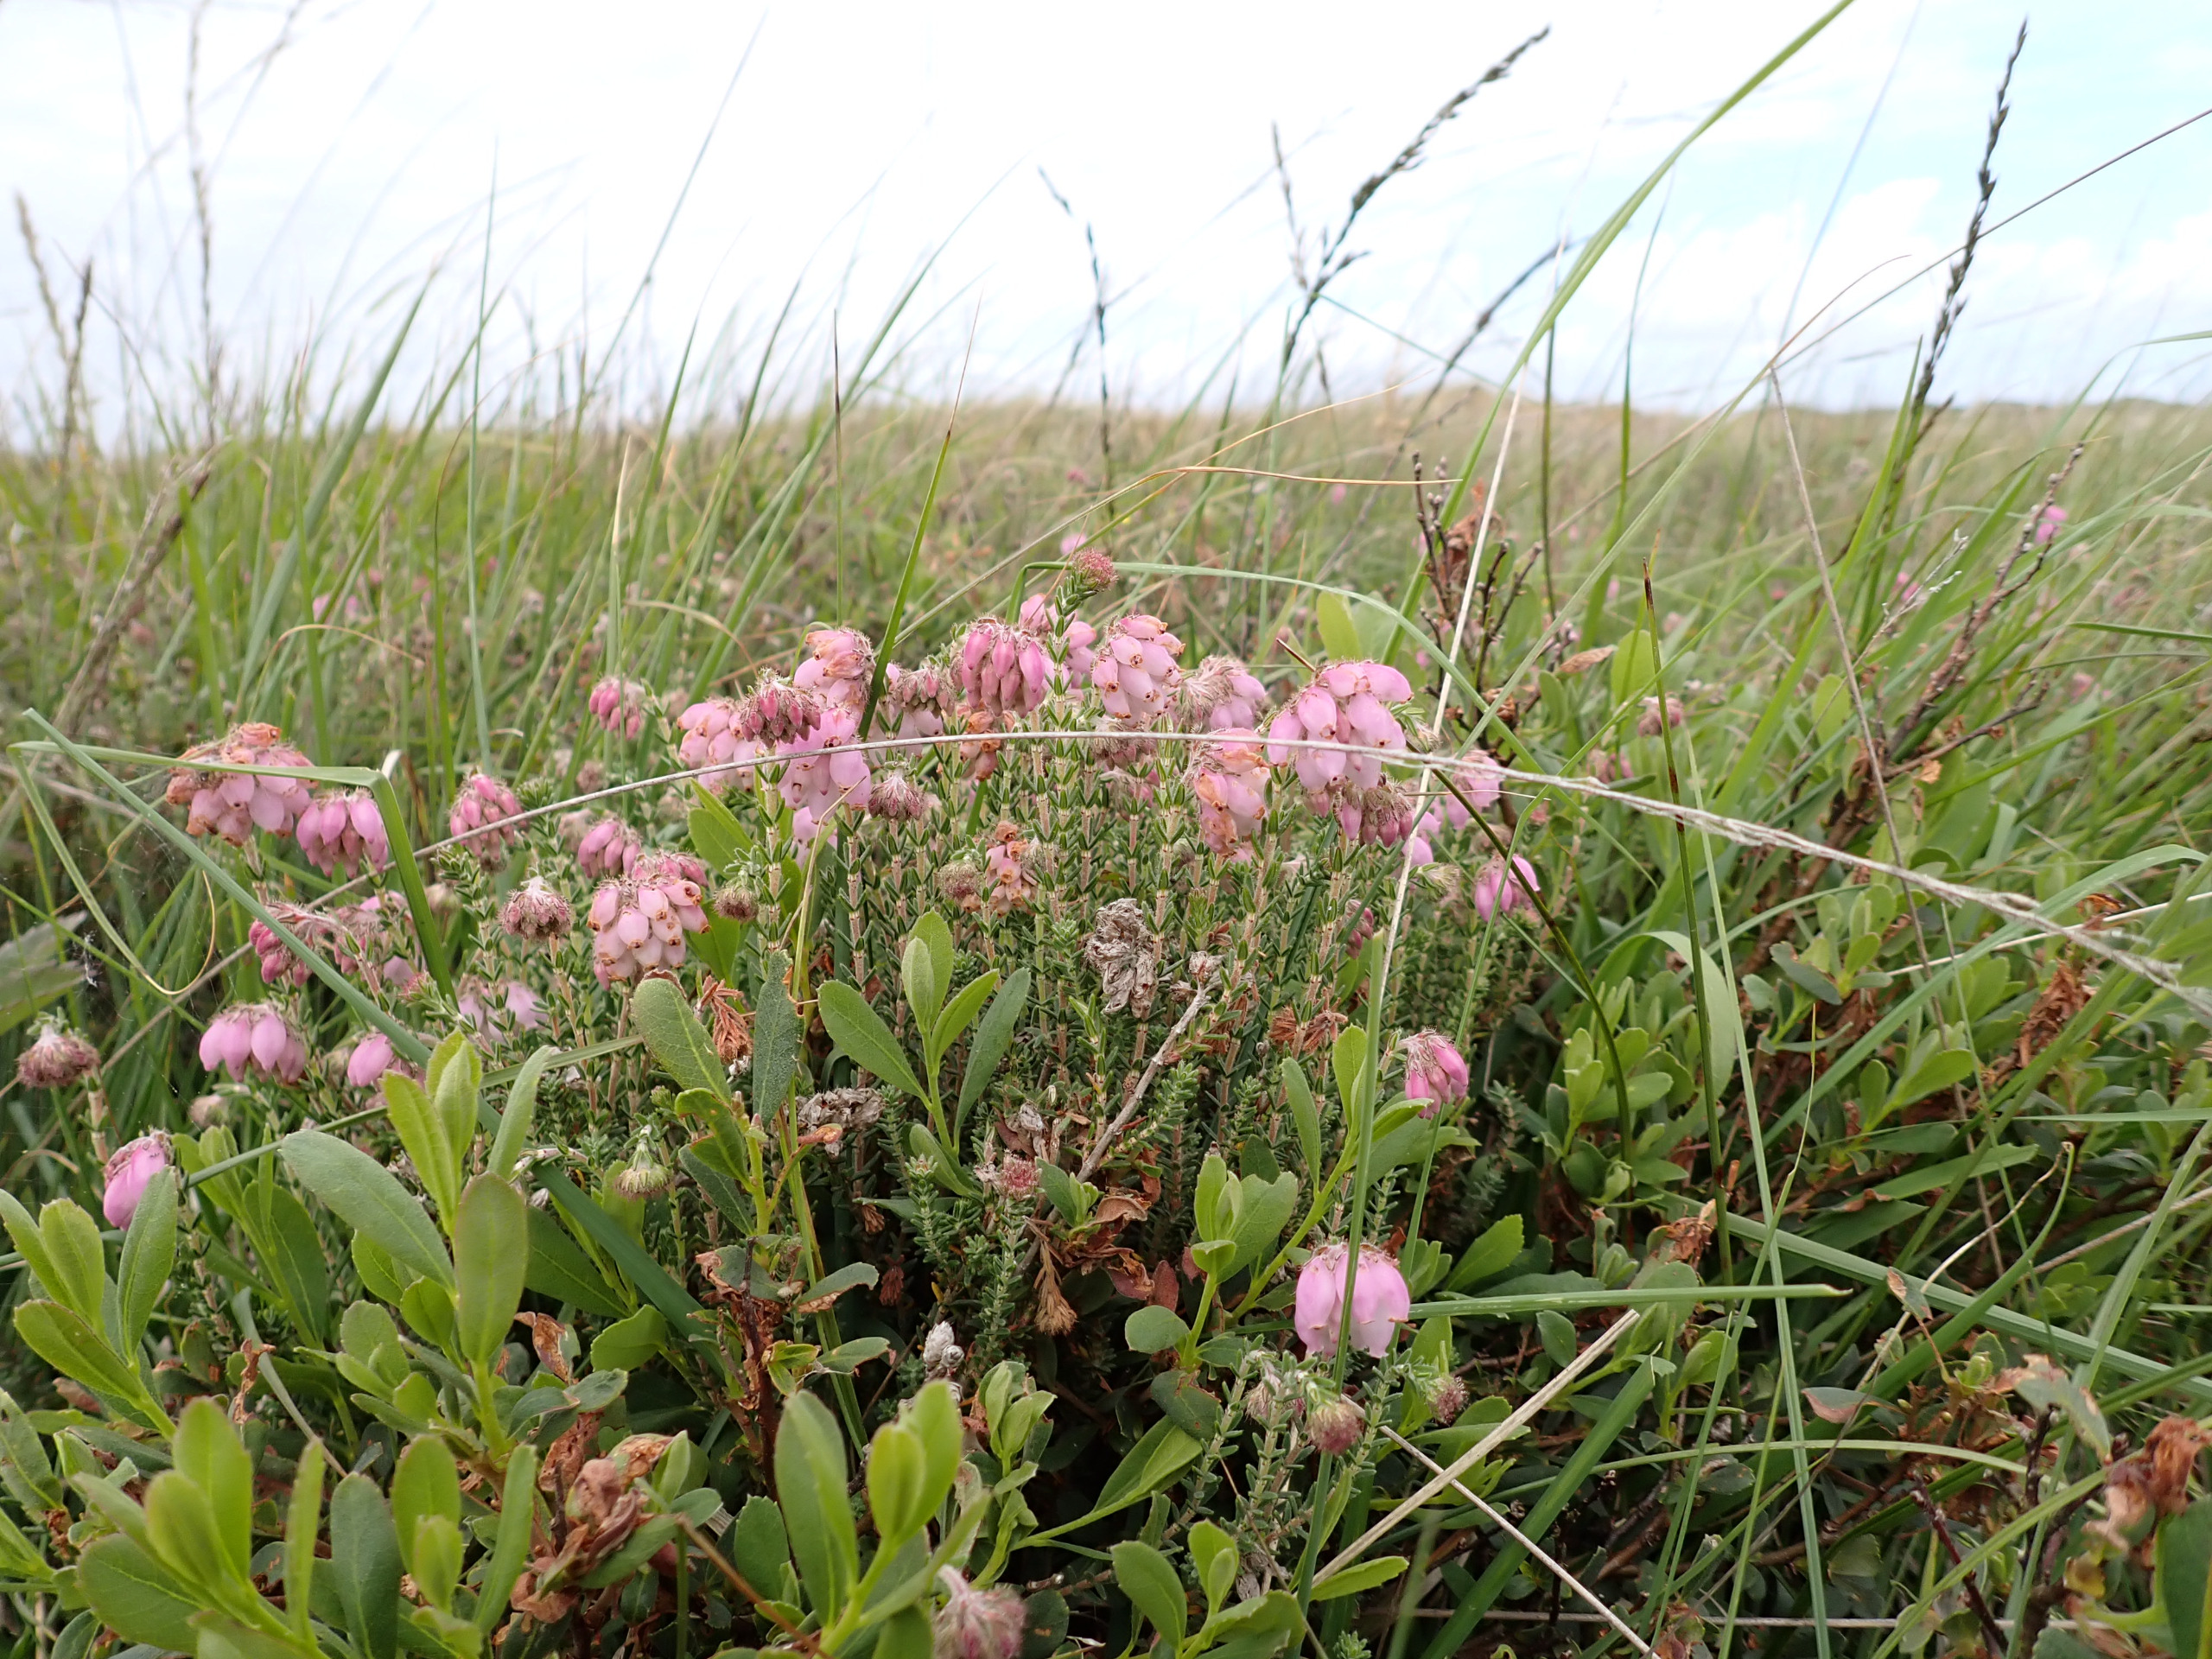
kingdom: Plantae
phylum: Tracheophyta
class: Magnoliopsida
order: Ericales
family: Ericaceae
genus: Erica
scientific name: Erica tetralix
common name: Klokkelyng
